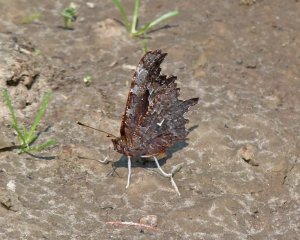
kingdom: Animalia
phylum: Arthropoda
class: Insecta
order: Lepidoptera
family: Nymphalidae
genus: Polygonia
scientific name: Polygonia gracilis
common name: Hoary Comma
